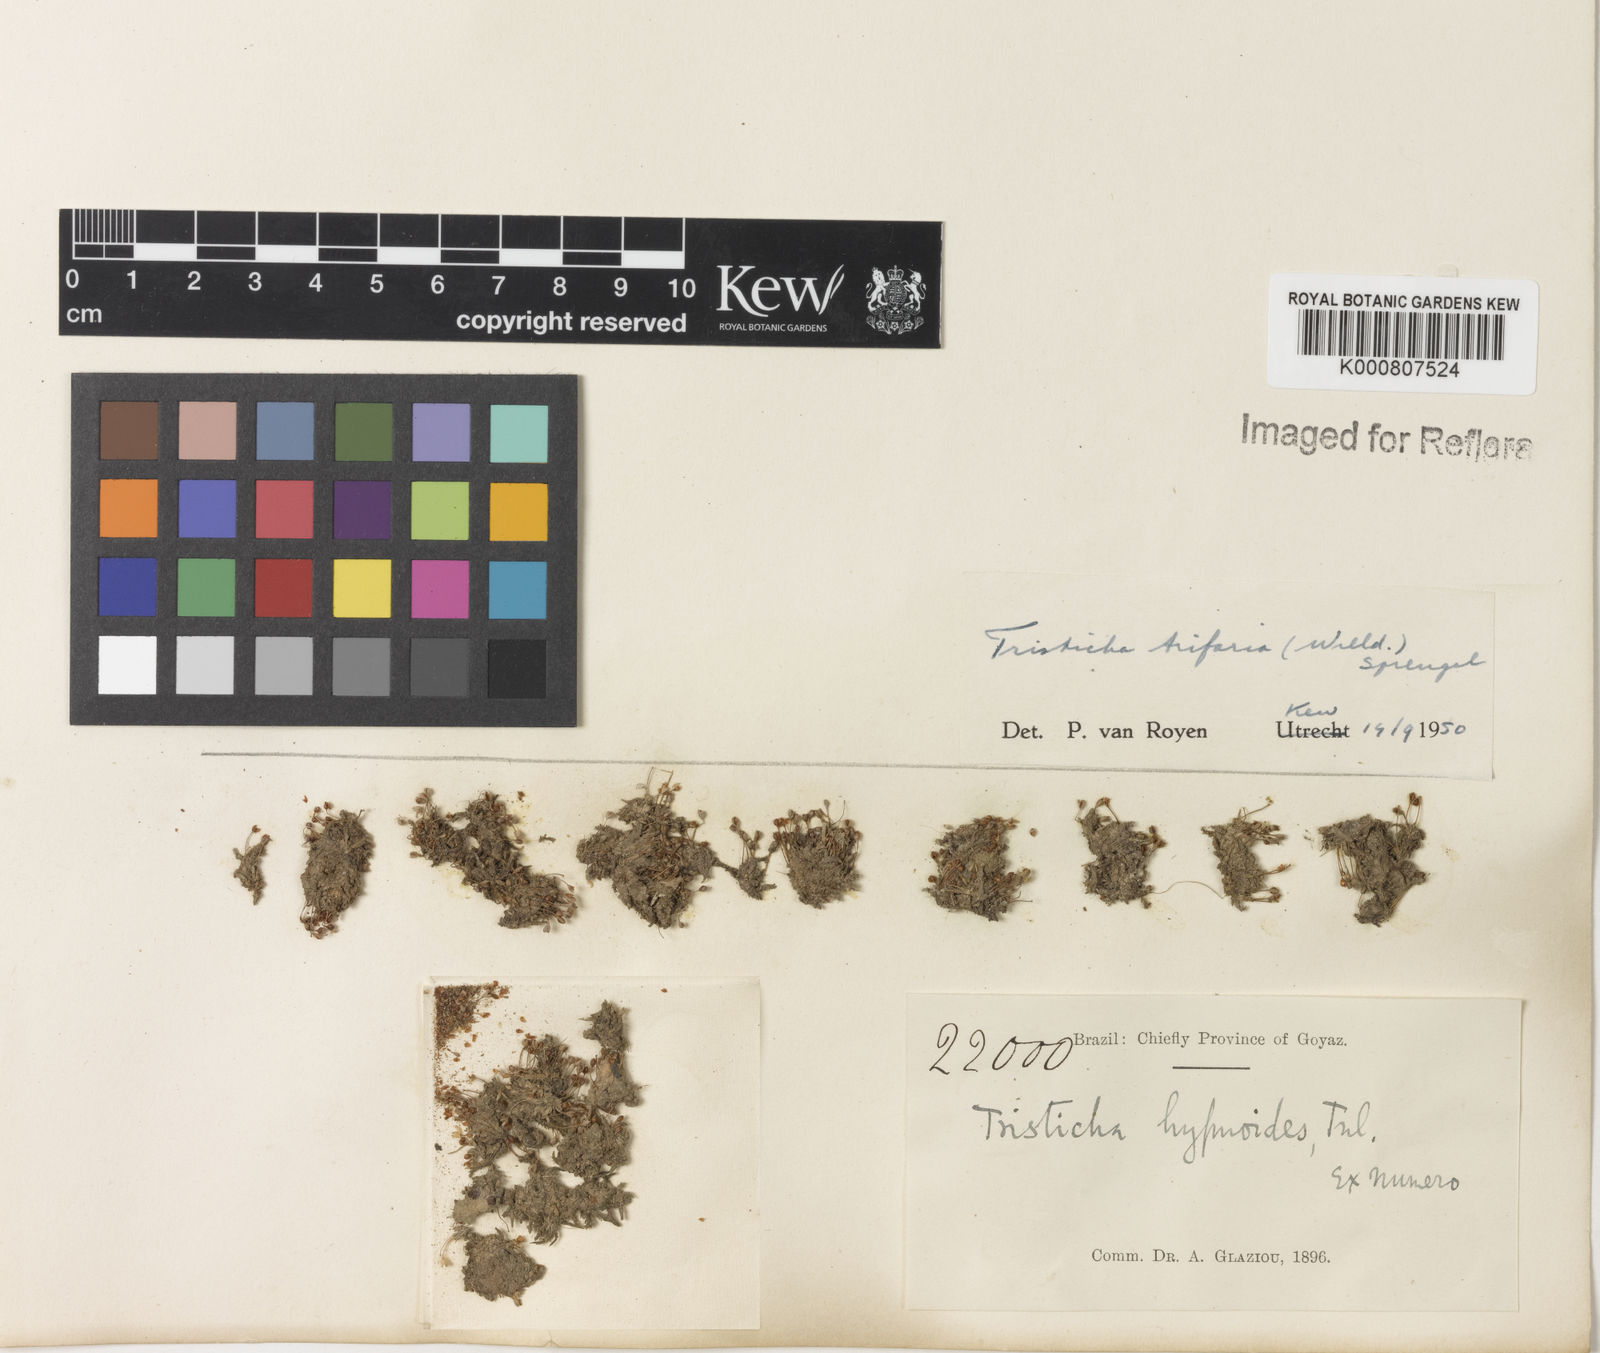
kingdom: Plantae
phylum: Tracheophyta
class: Magnoliopsida
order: Malpighiales
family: Podostemaceae
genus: Tristicha
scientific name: Tristicha trifaria
